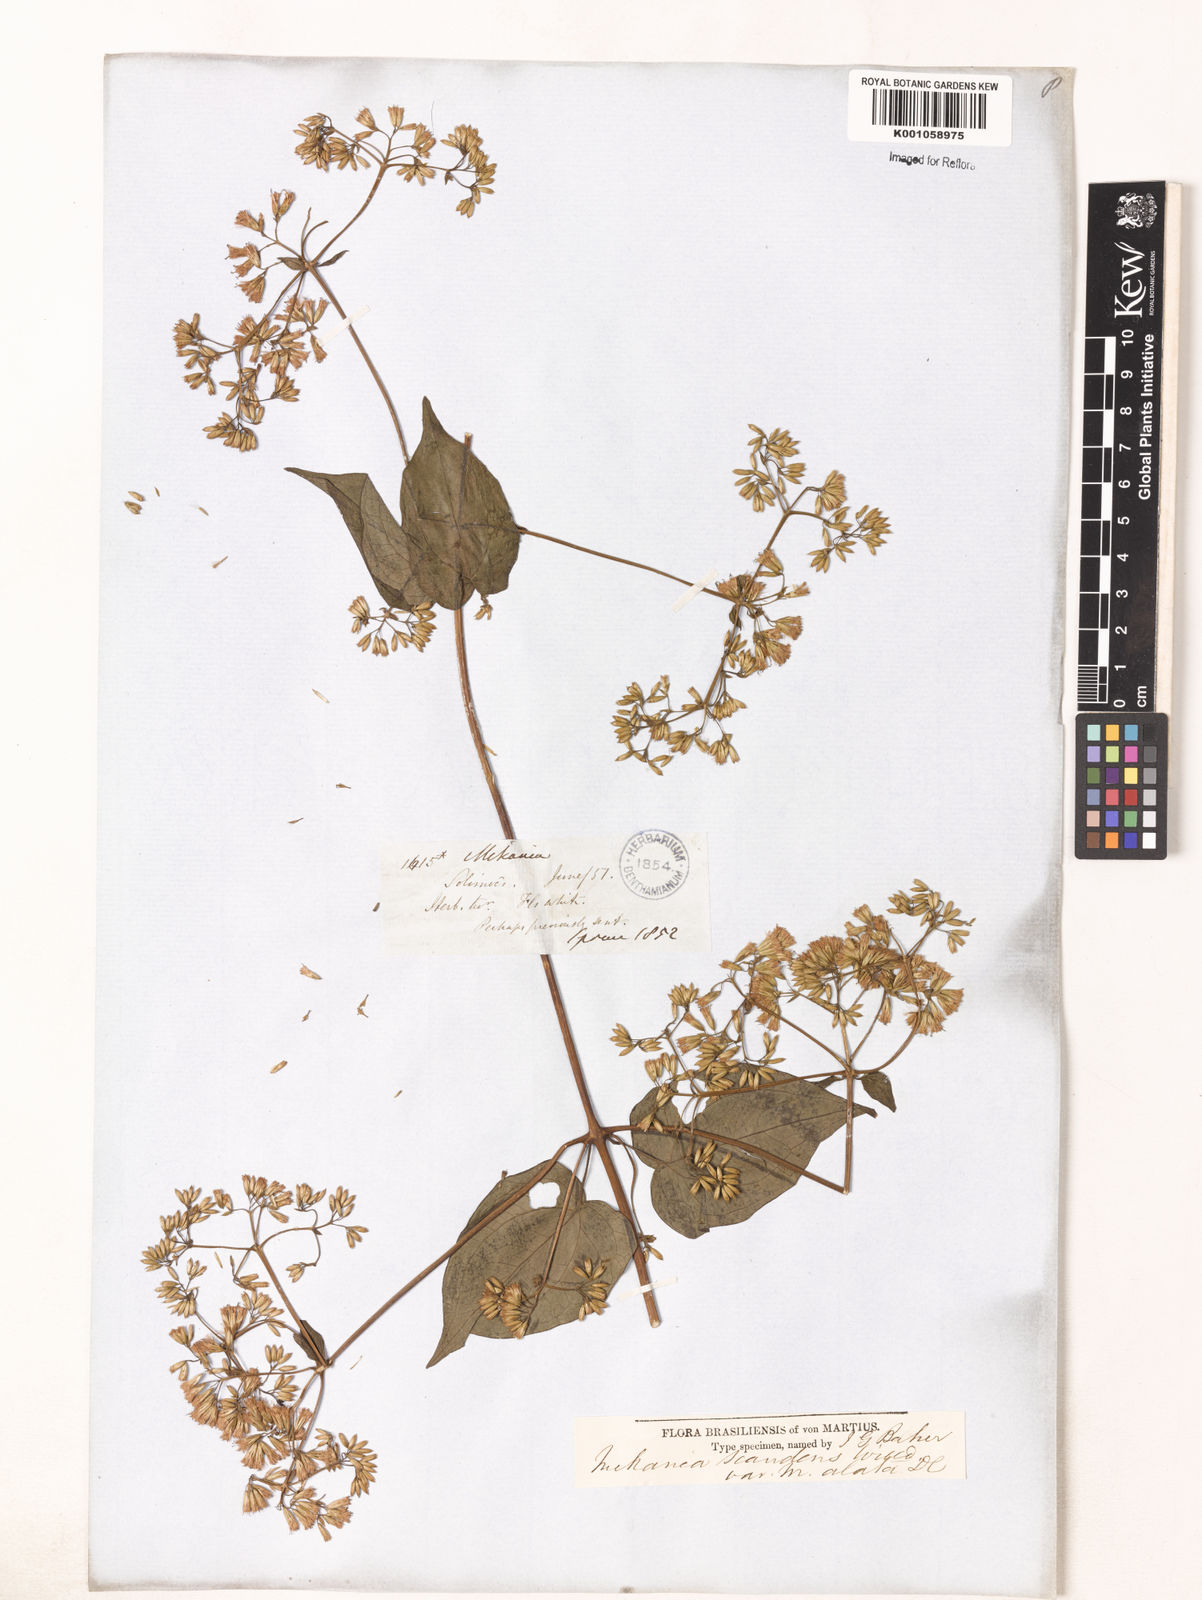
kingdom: Plantae
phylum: Tracheophyta
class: Magnoliopsida
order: Asterales
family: Asteraceae
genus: Mikania
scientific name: Mikania rimachii
